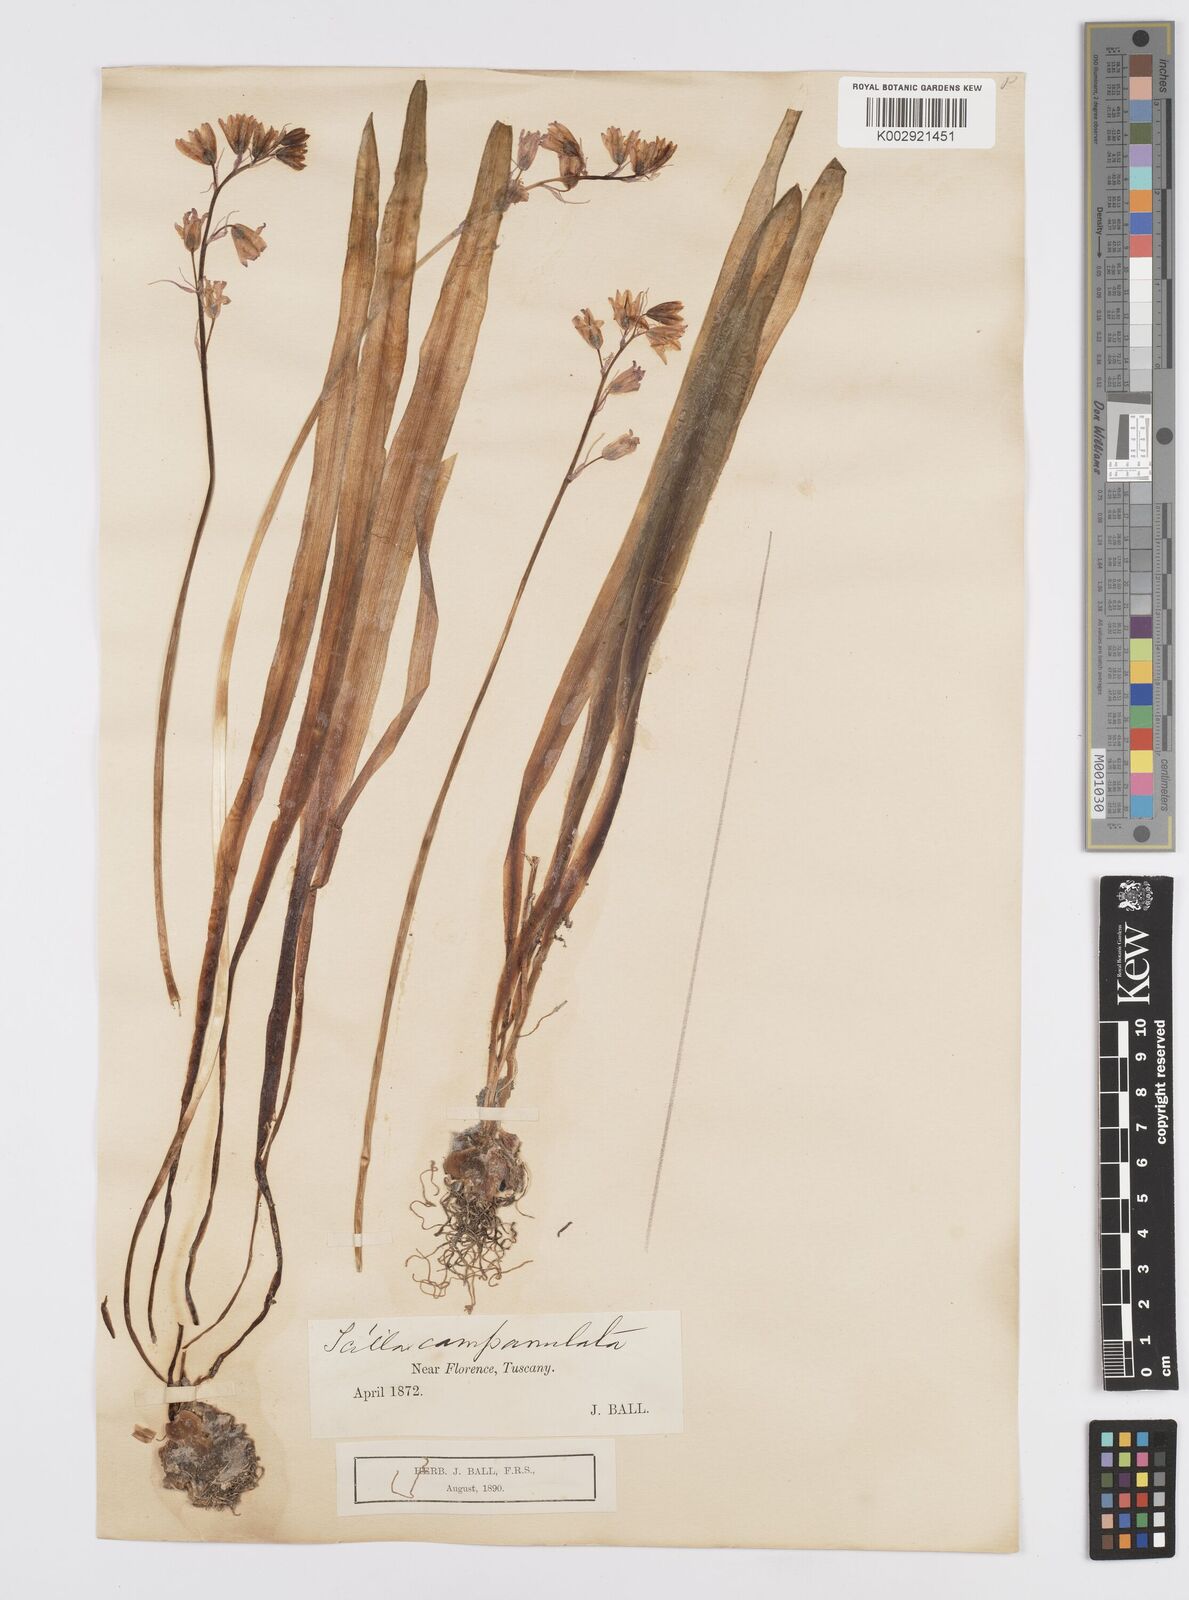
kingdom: Plantae
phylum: Tracheophyta
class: Liliopsida
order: Asparagales
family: Asparagaceae
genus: Hyacinthoides
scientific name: Hyacinthoides hispanica
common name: Spanish bluebell
